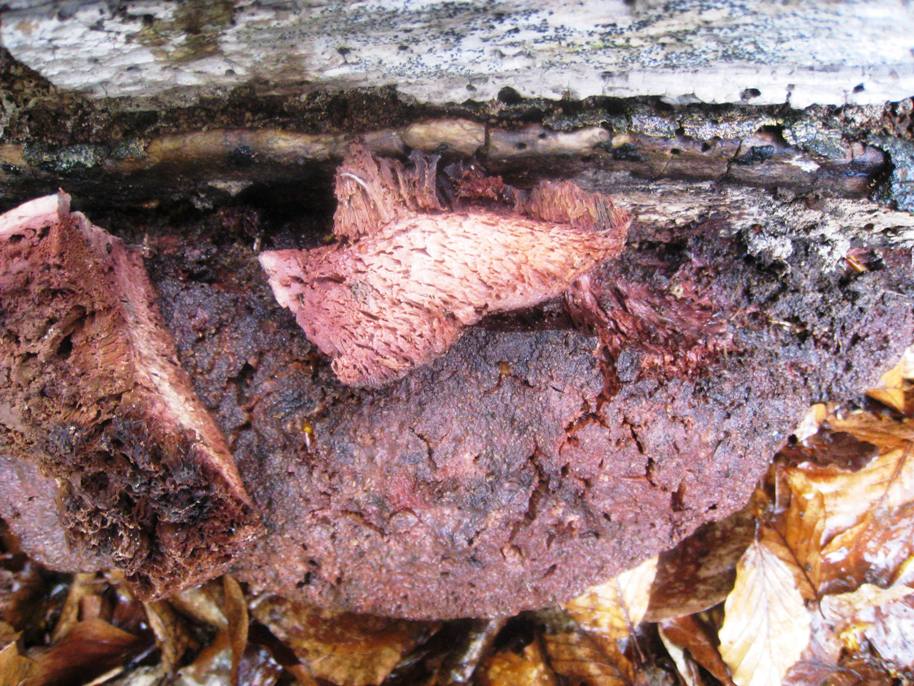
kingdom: Fungi
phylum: Basidiomycota
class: Agaricomycetes
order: Polyporales
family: Meruliaceae
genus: Pappia
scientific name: Pappia fissilis
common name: rosa fedtporesvamp
